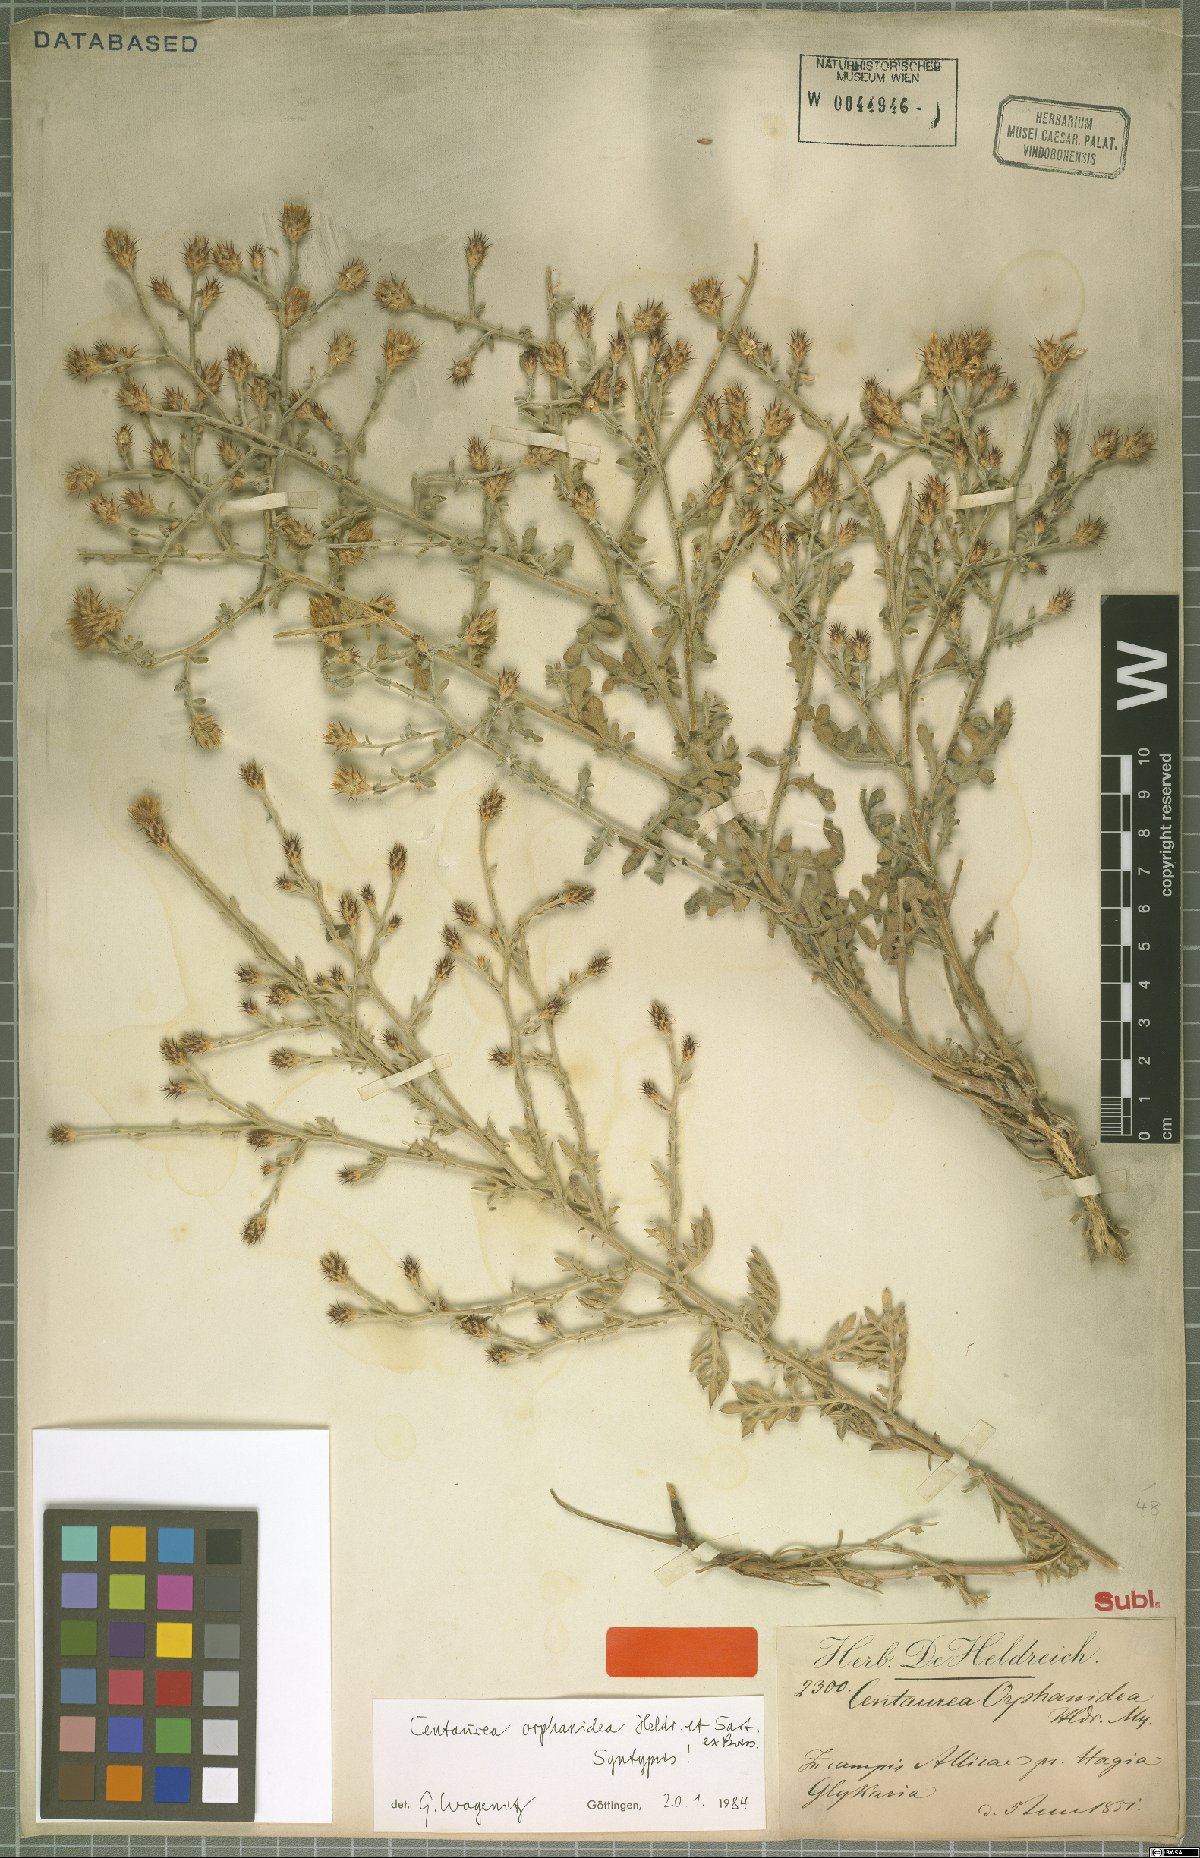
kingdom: Plantae
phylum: Tracheophyta
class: Magnoliopsida
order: Asterales
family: Asteraceae
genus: Centaurea
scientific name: Centaurea orphanidea
